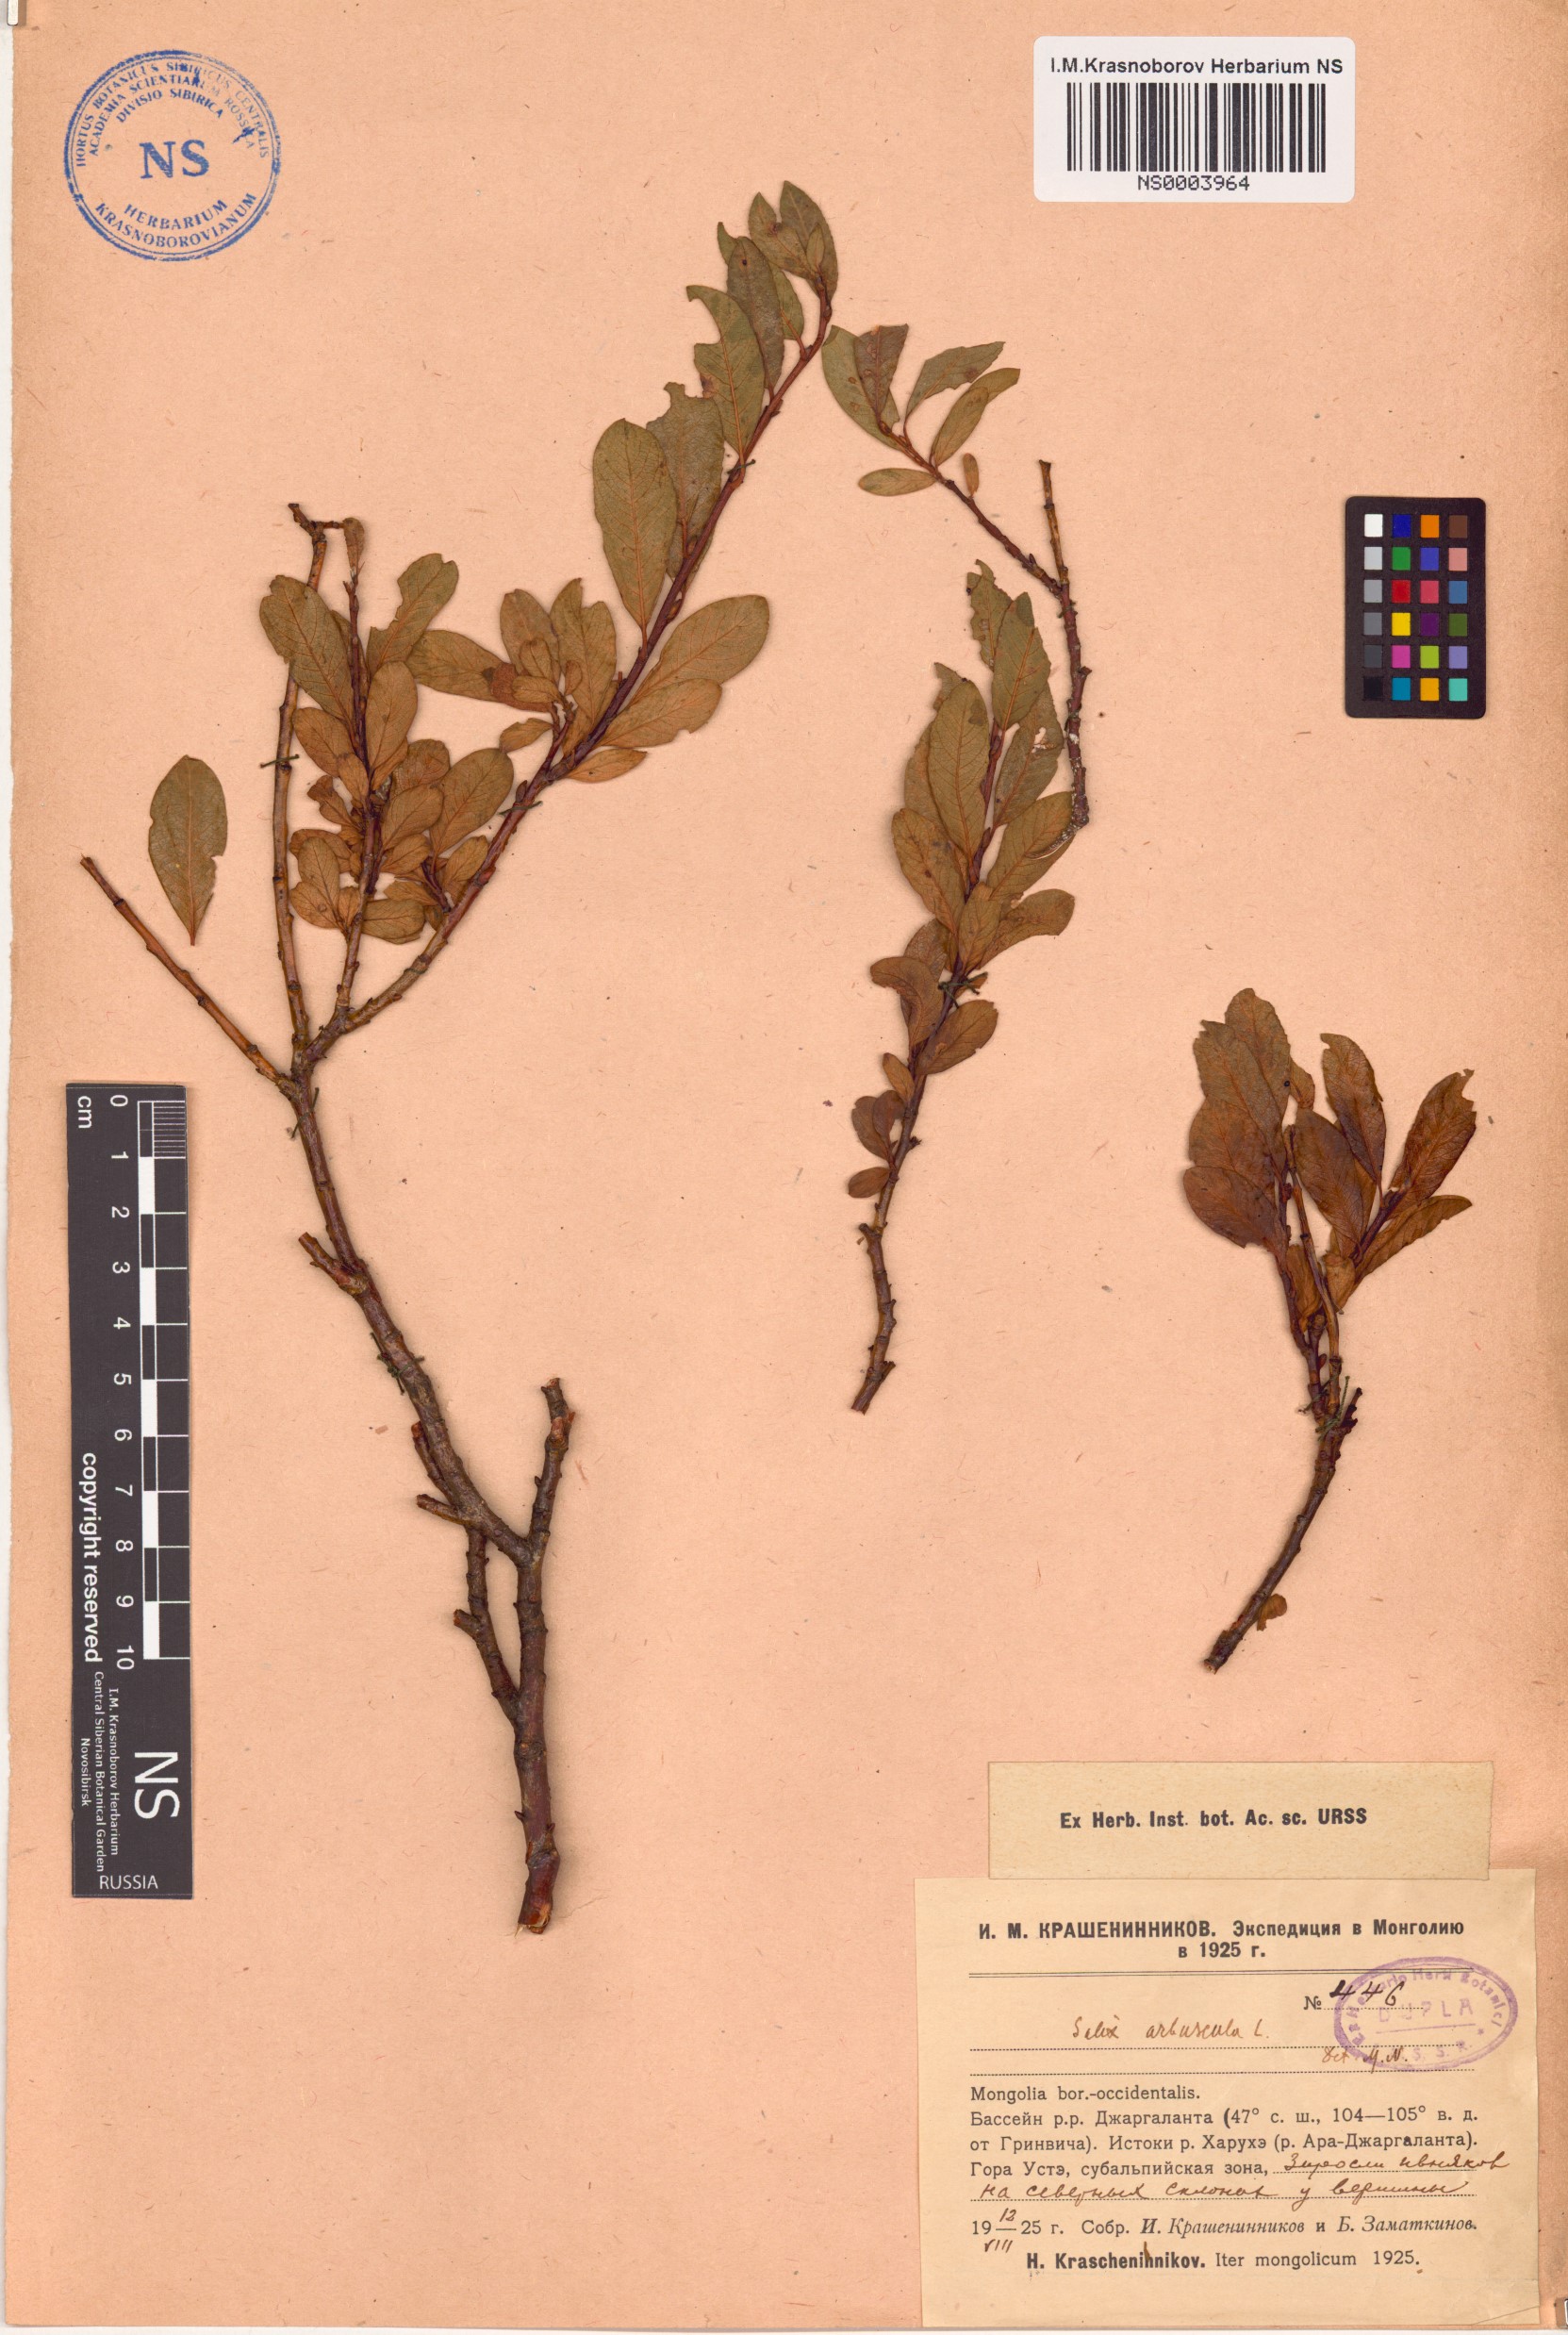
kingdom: Plantae
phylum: Tracheophyta
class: Magnoliopsida
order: Malpighiales
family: Salicaceae
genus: Salix
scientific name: Salix arbuscula
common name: Mountain willow
